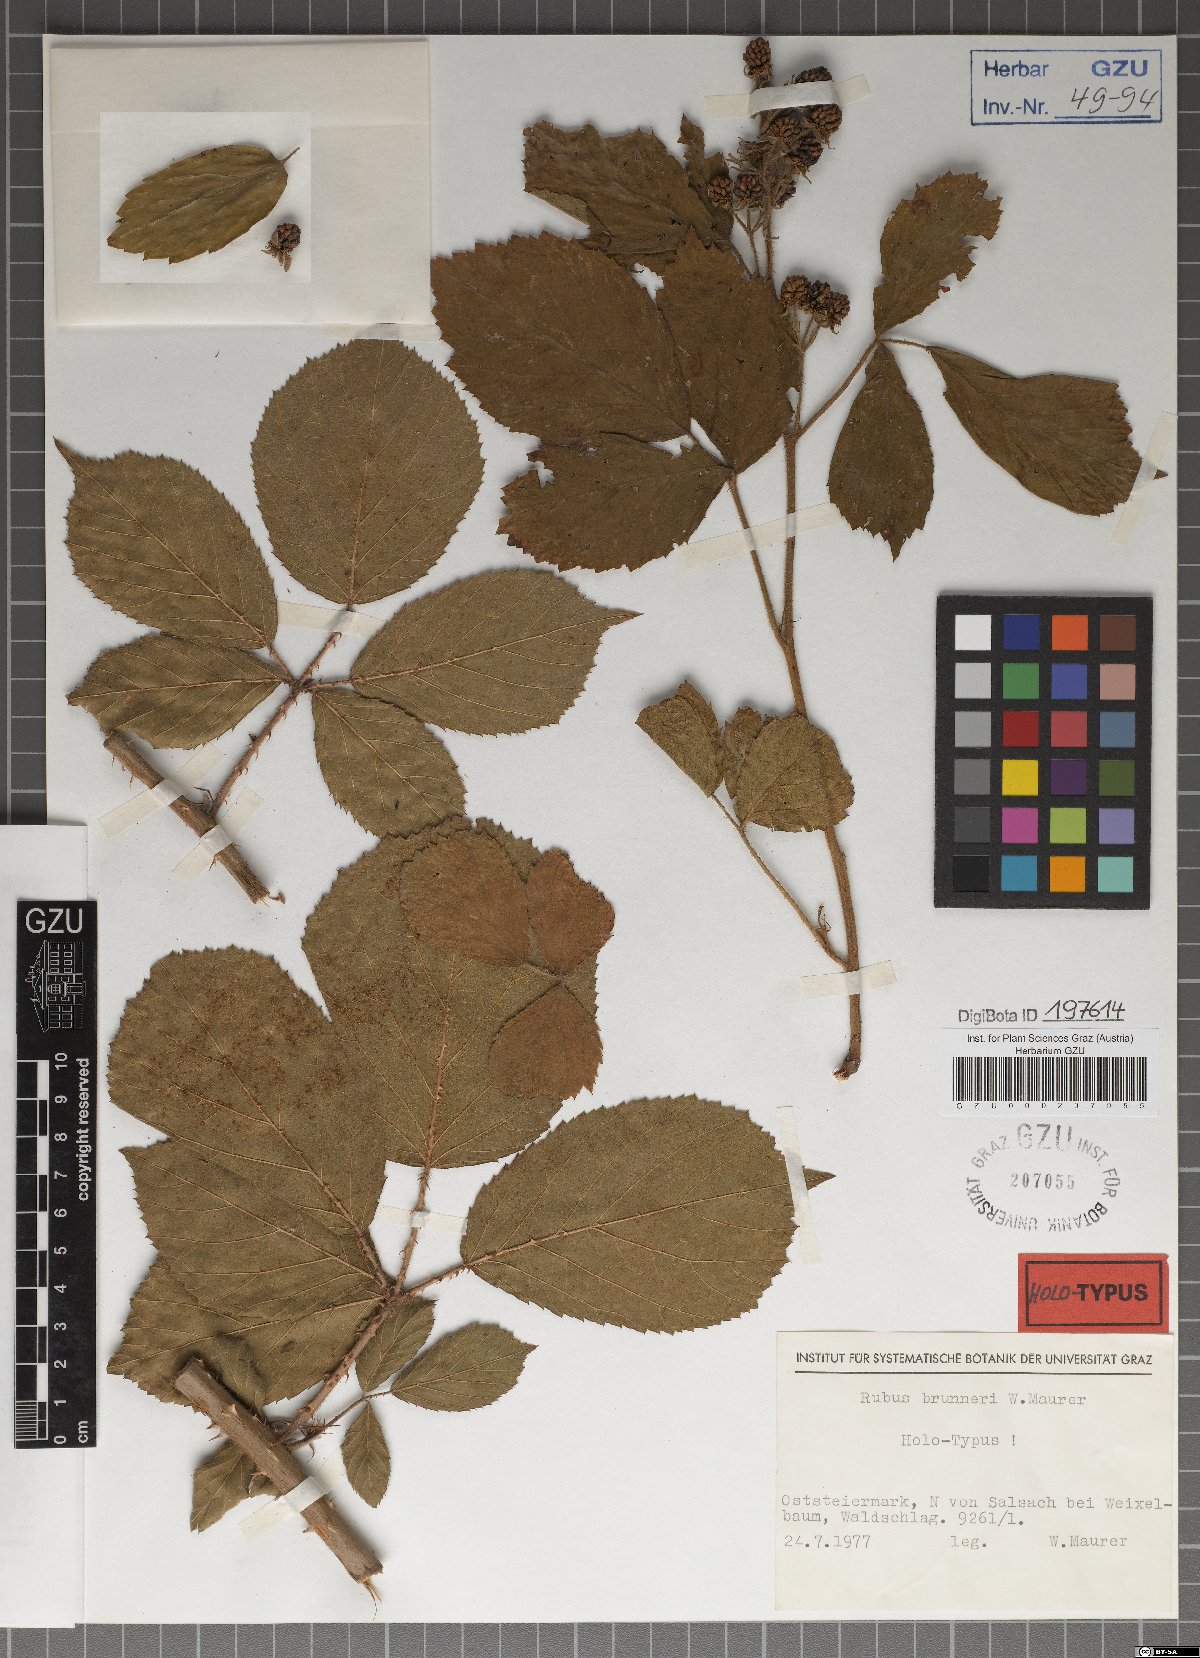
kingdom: Plantae
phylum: Tracheophyta
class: Magnoliopsida
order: Rosales
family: Rosaceae
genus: Rubus
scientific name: Rubus brunneri
